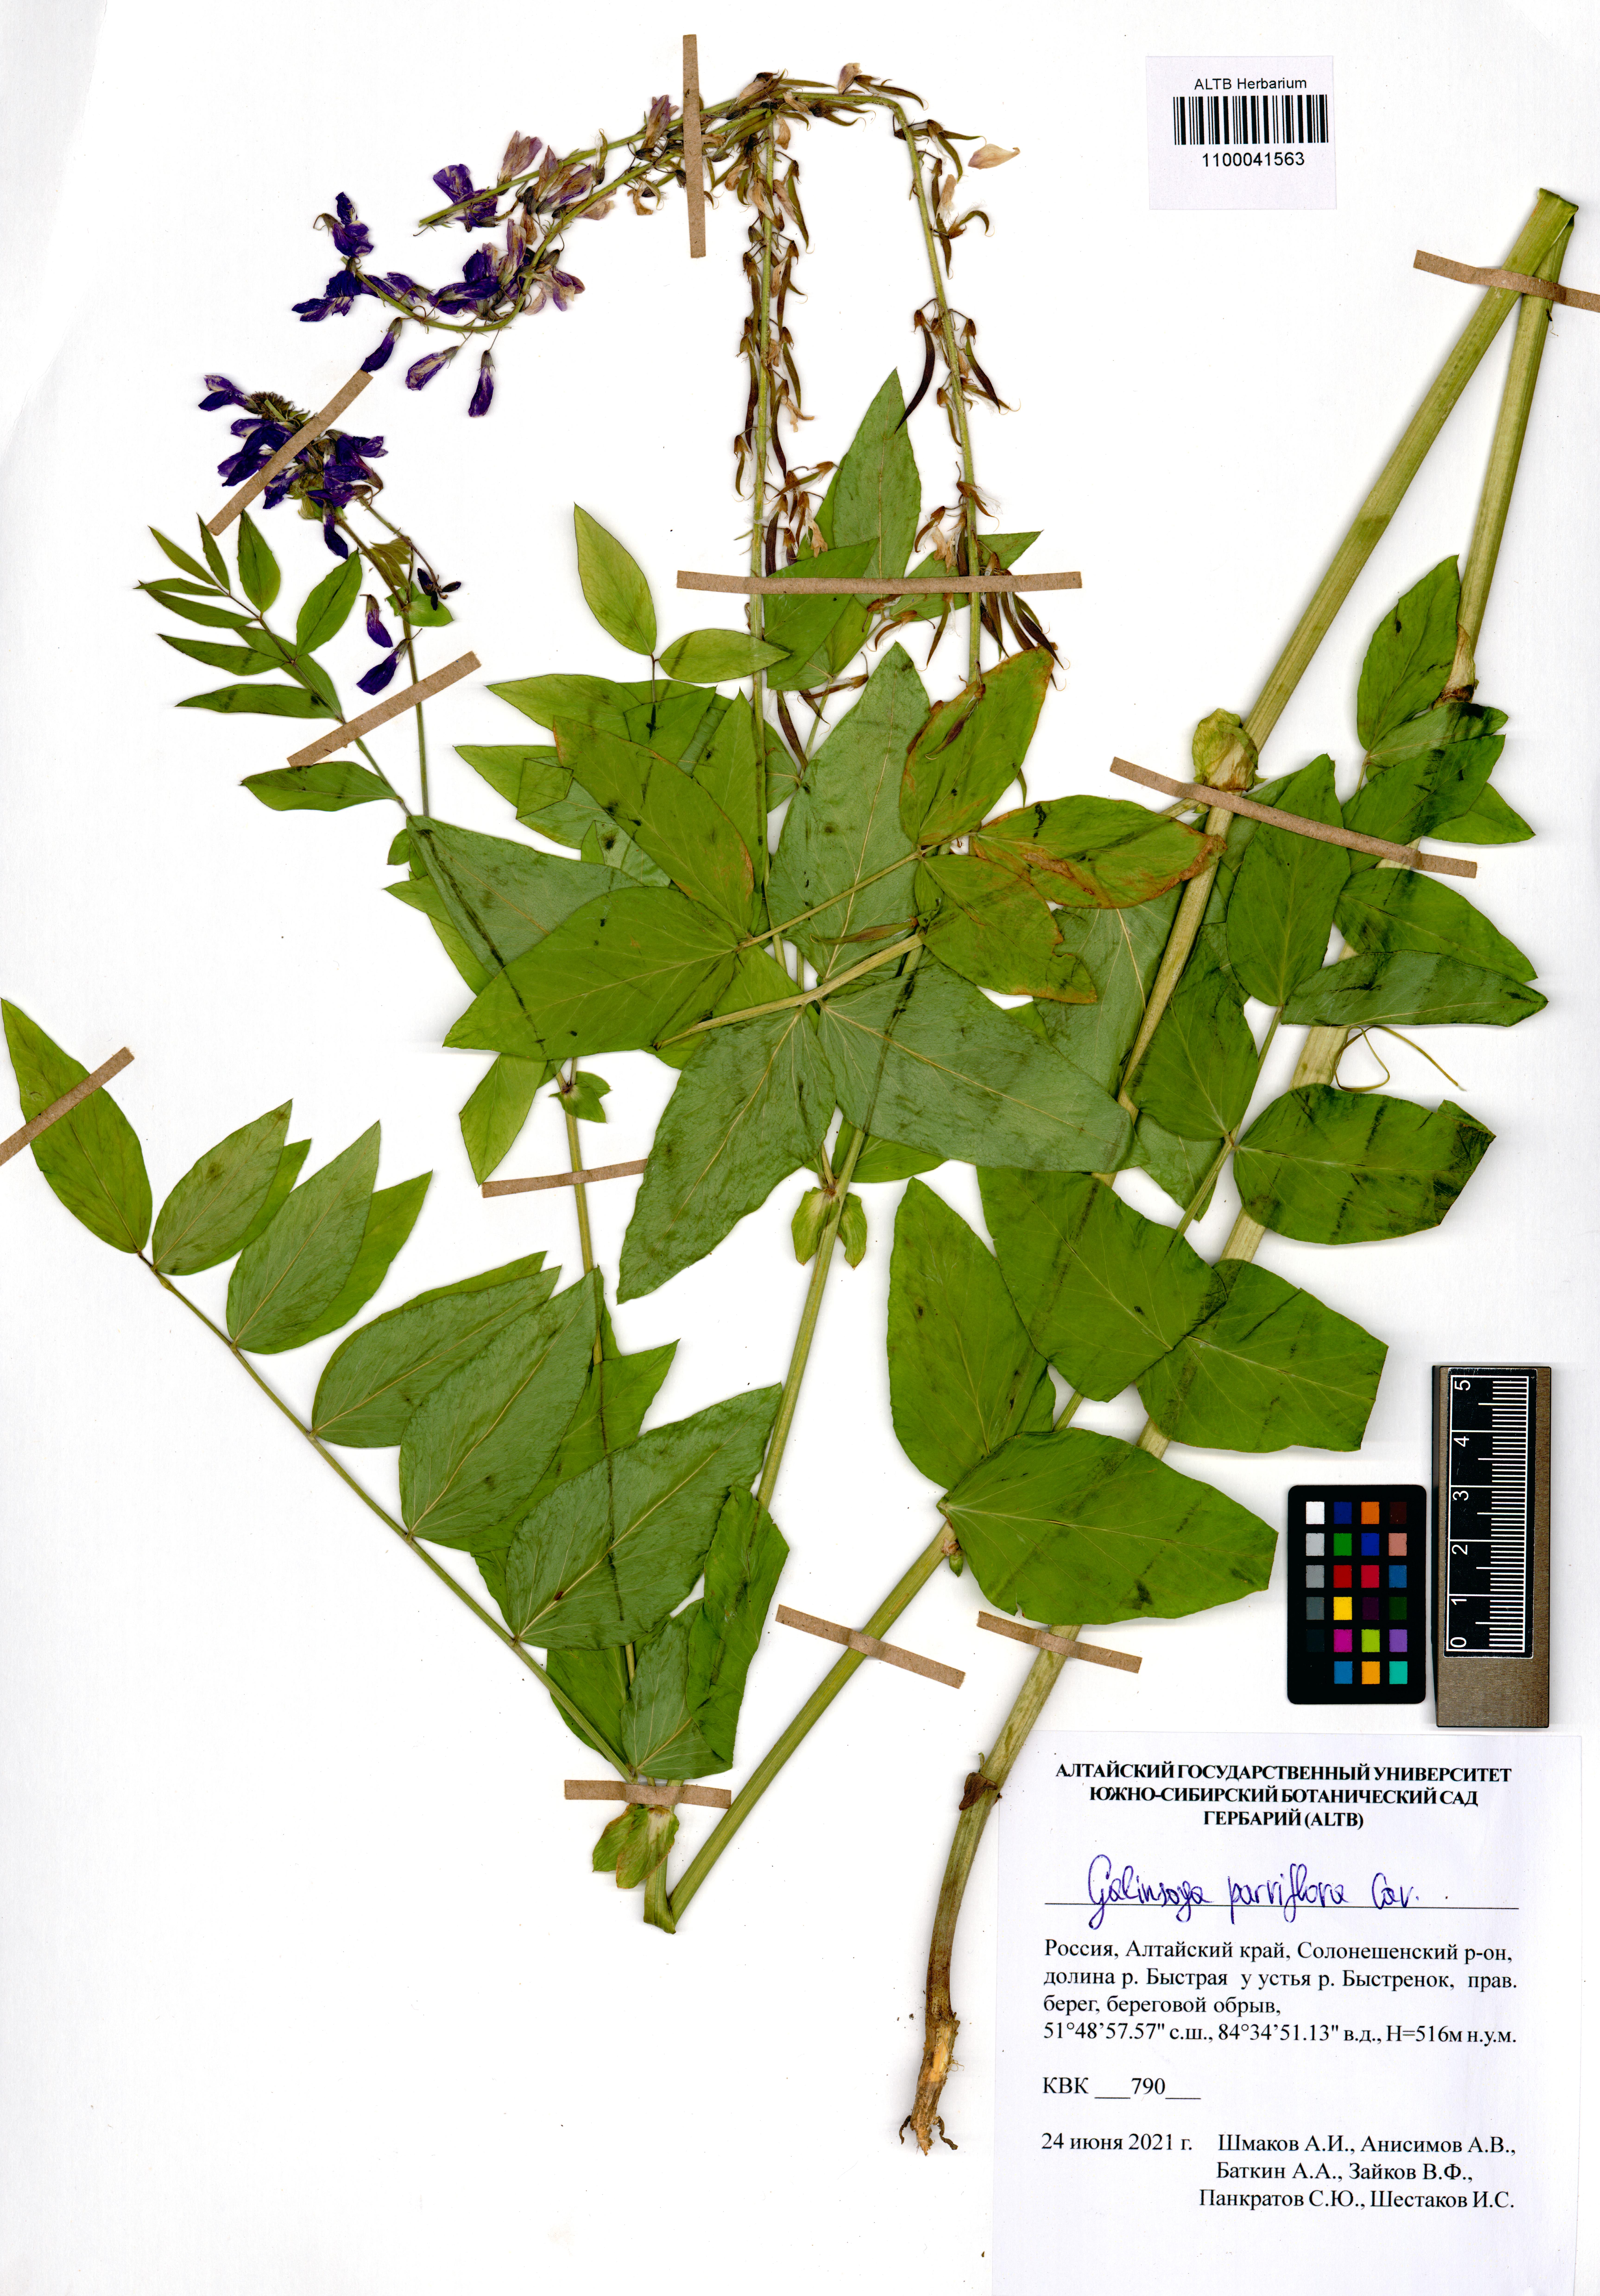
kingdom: Plantae
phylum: Tracheophyta
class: Magnoliopsida
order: Asterales
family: Asteraceae
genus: Galinsoga
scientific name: Galinsoga parviflora
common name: Gallant soldier
